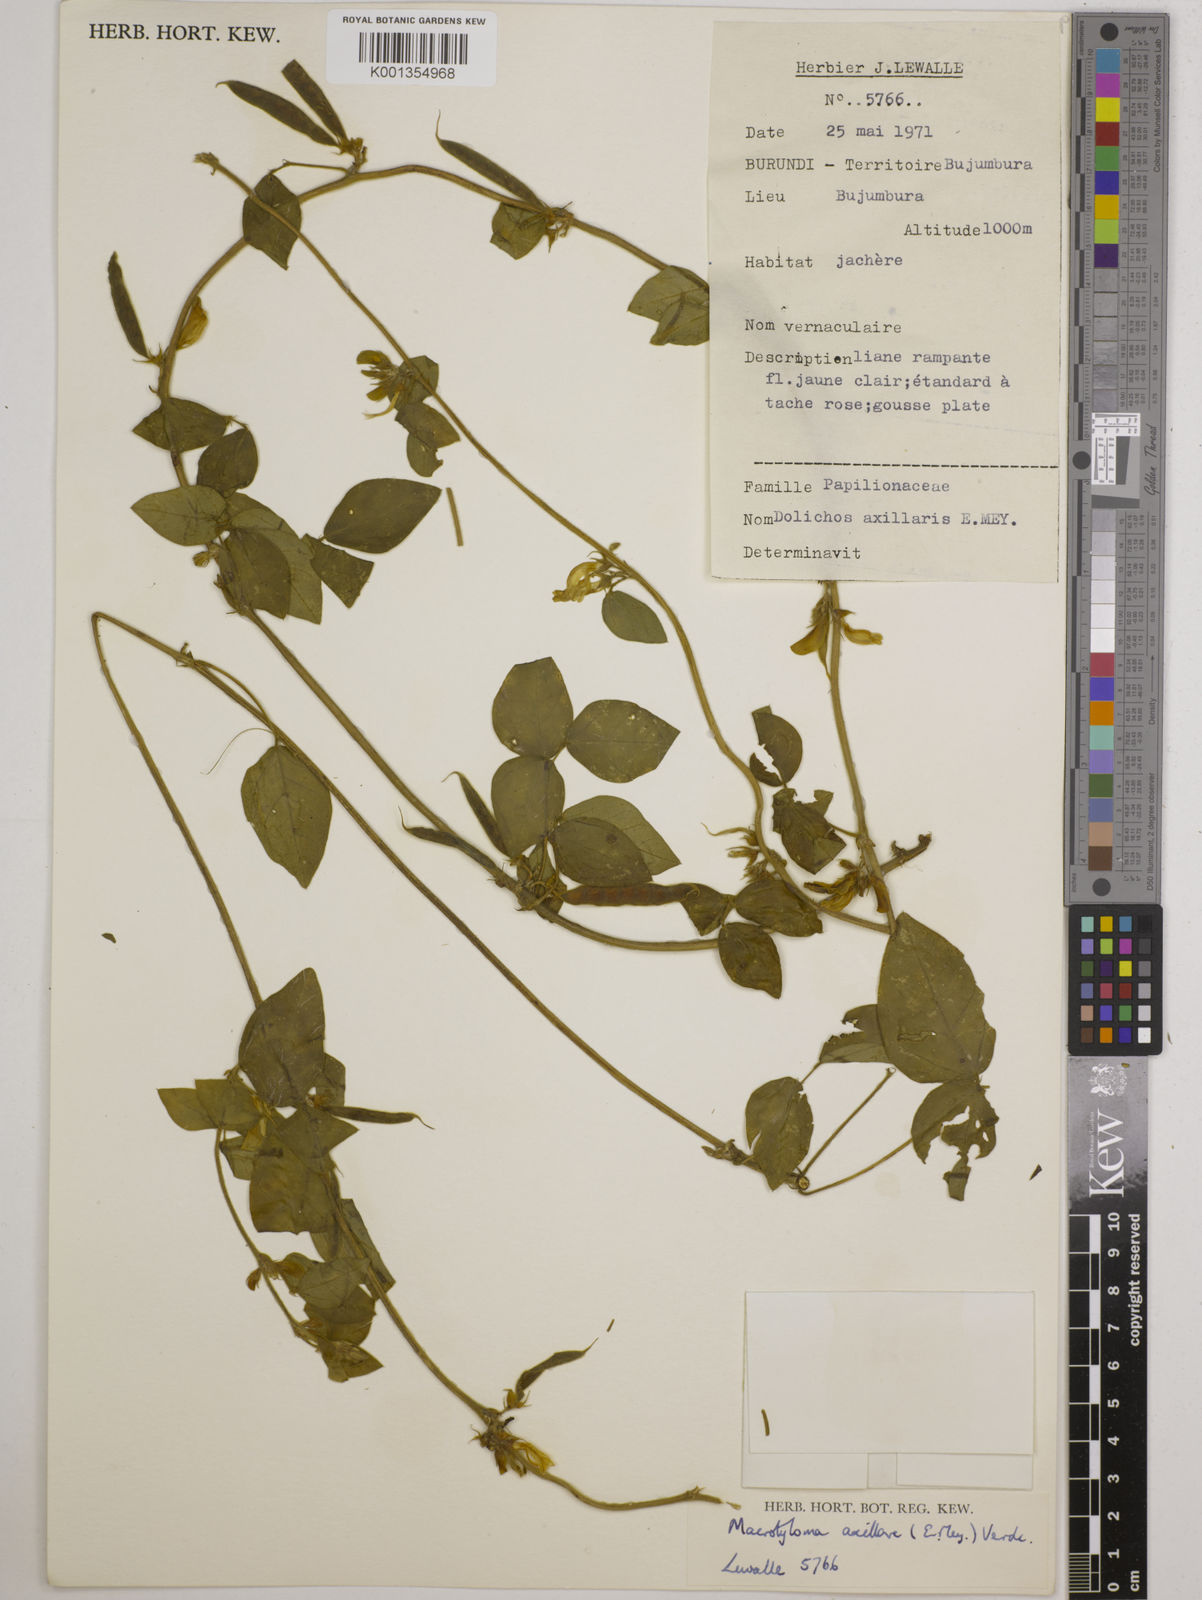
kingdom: Plantae
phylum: Tracheophyta
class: Magnoliopsida
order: Fabales
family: Fabaceae
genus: Macrotyloma
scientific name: Macrotyloma axillare
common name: Perennial horsegram
